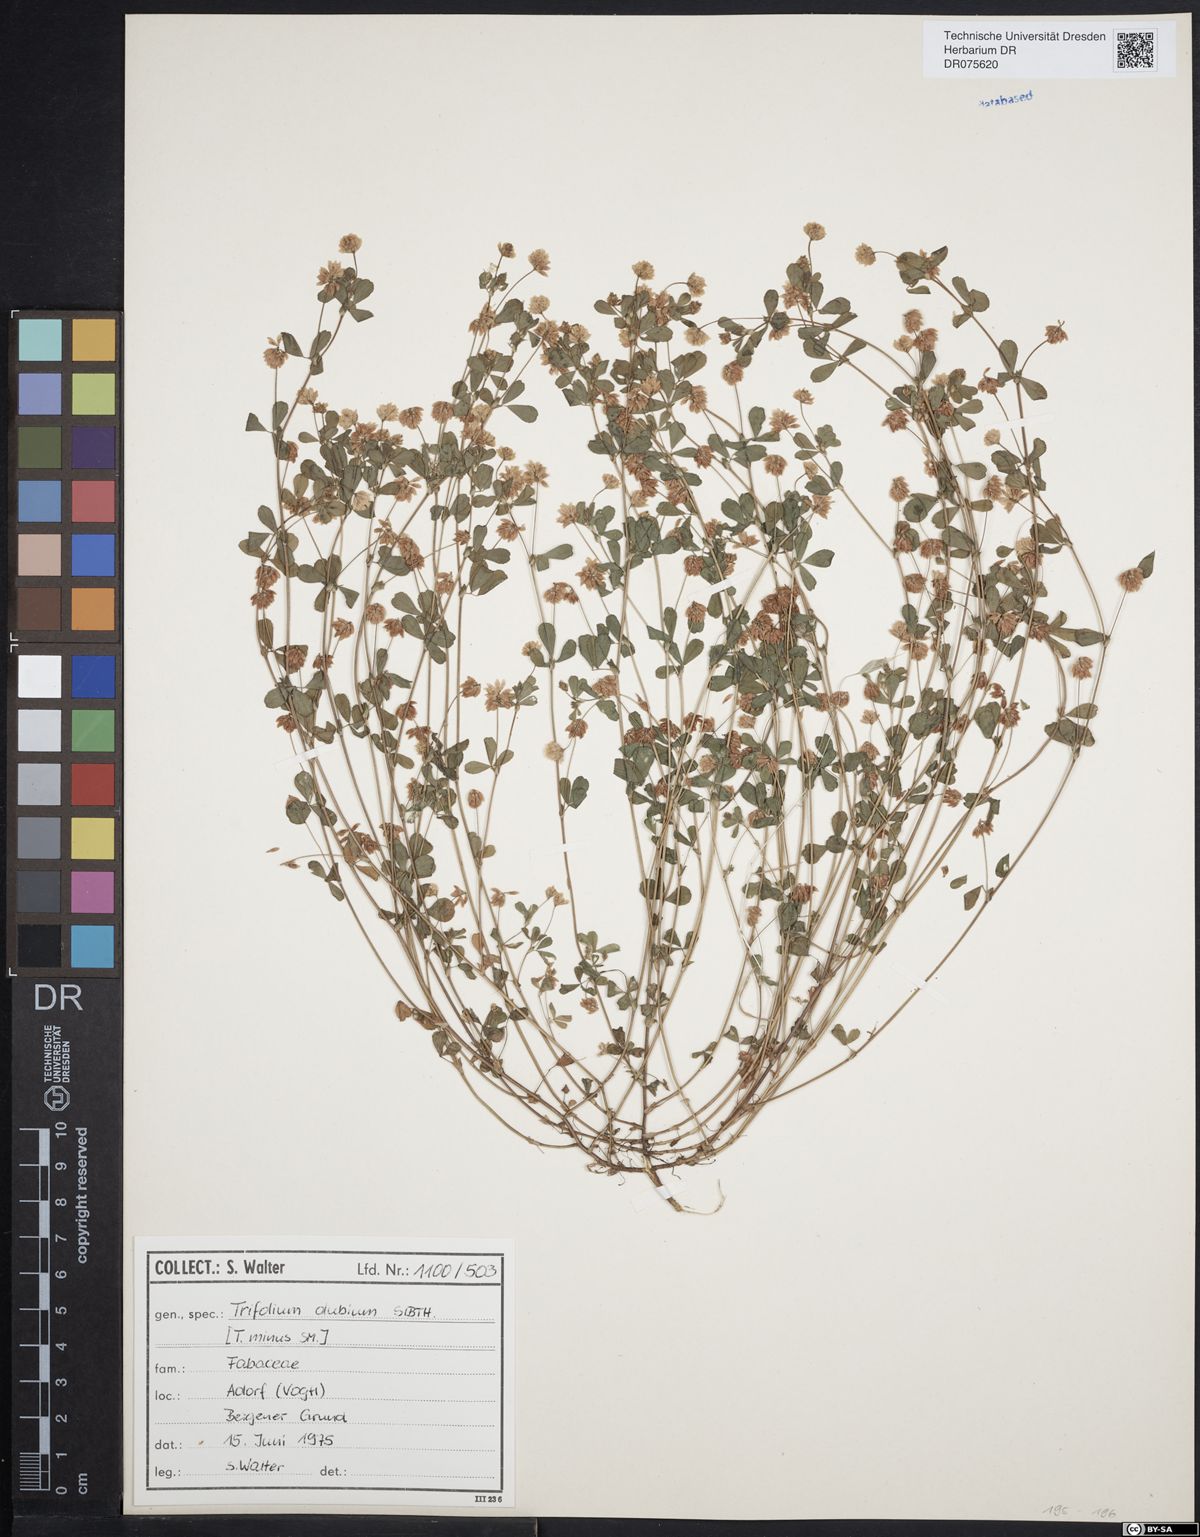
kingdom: Plantae
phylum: Tracheophyta
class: Magnoliopsida
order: Fabales
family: Fabaceae
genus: Trifolium
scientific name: Trifolium dubium
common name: Suckling clover
